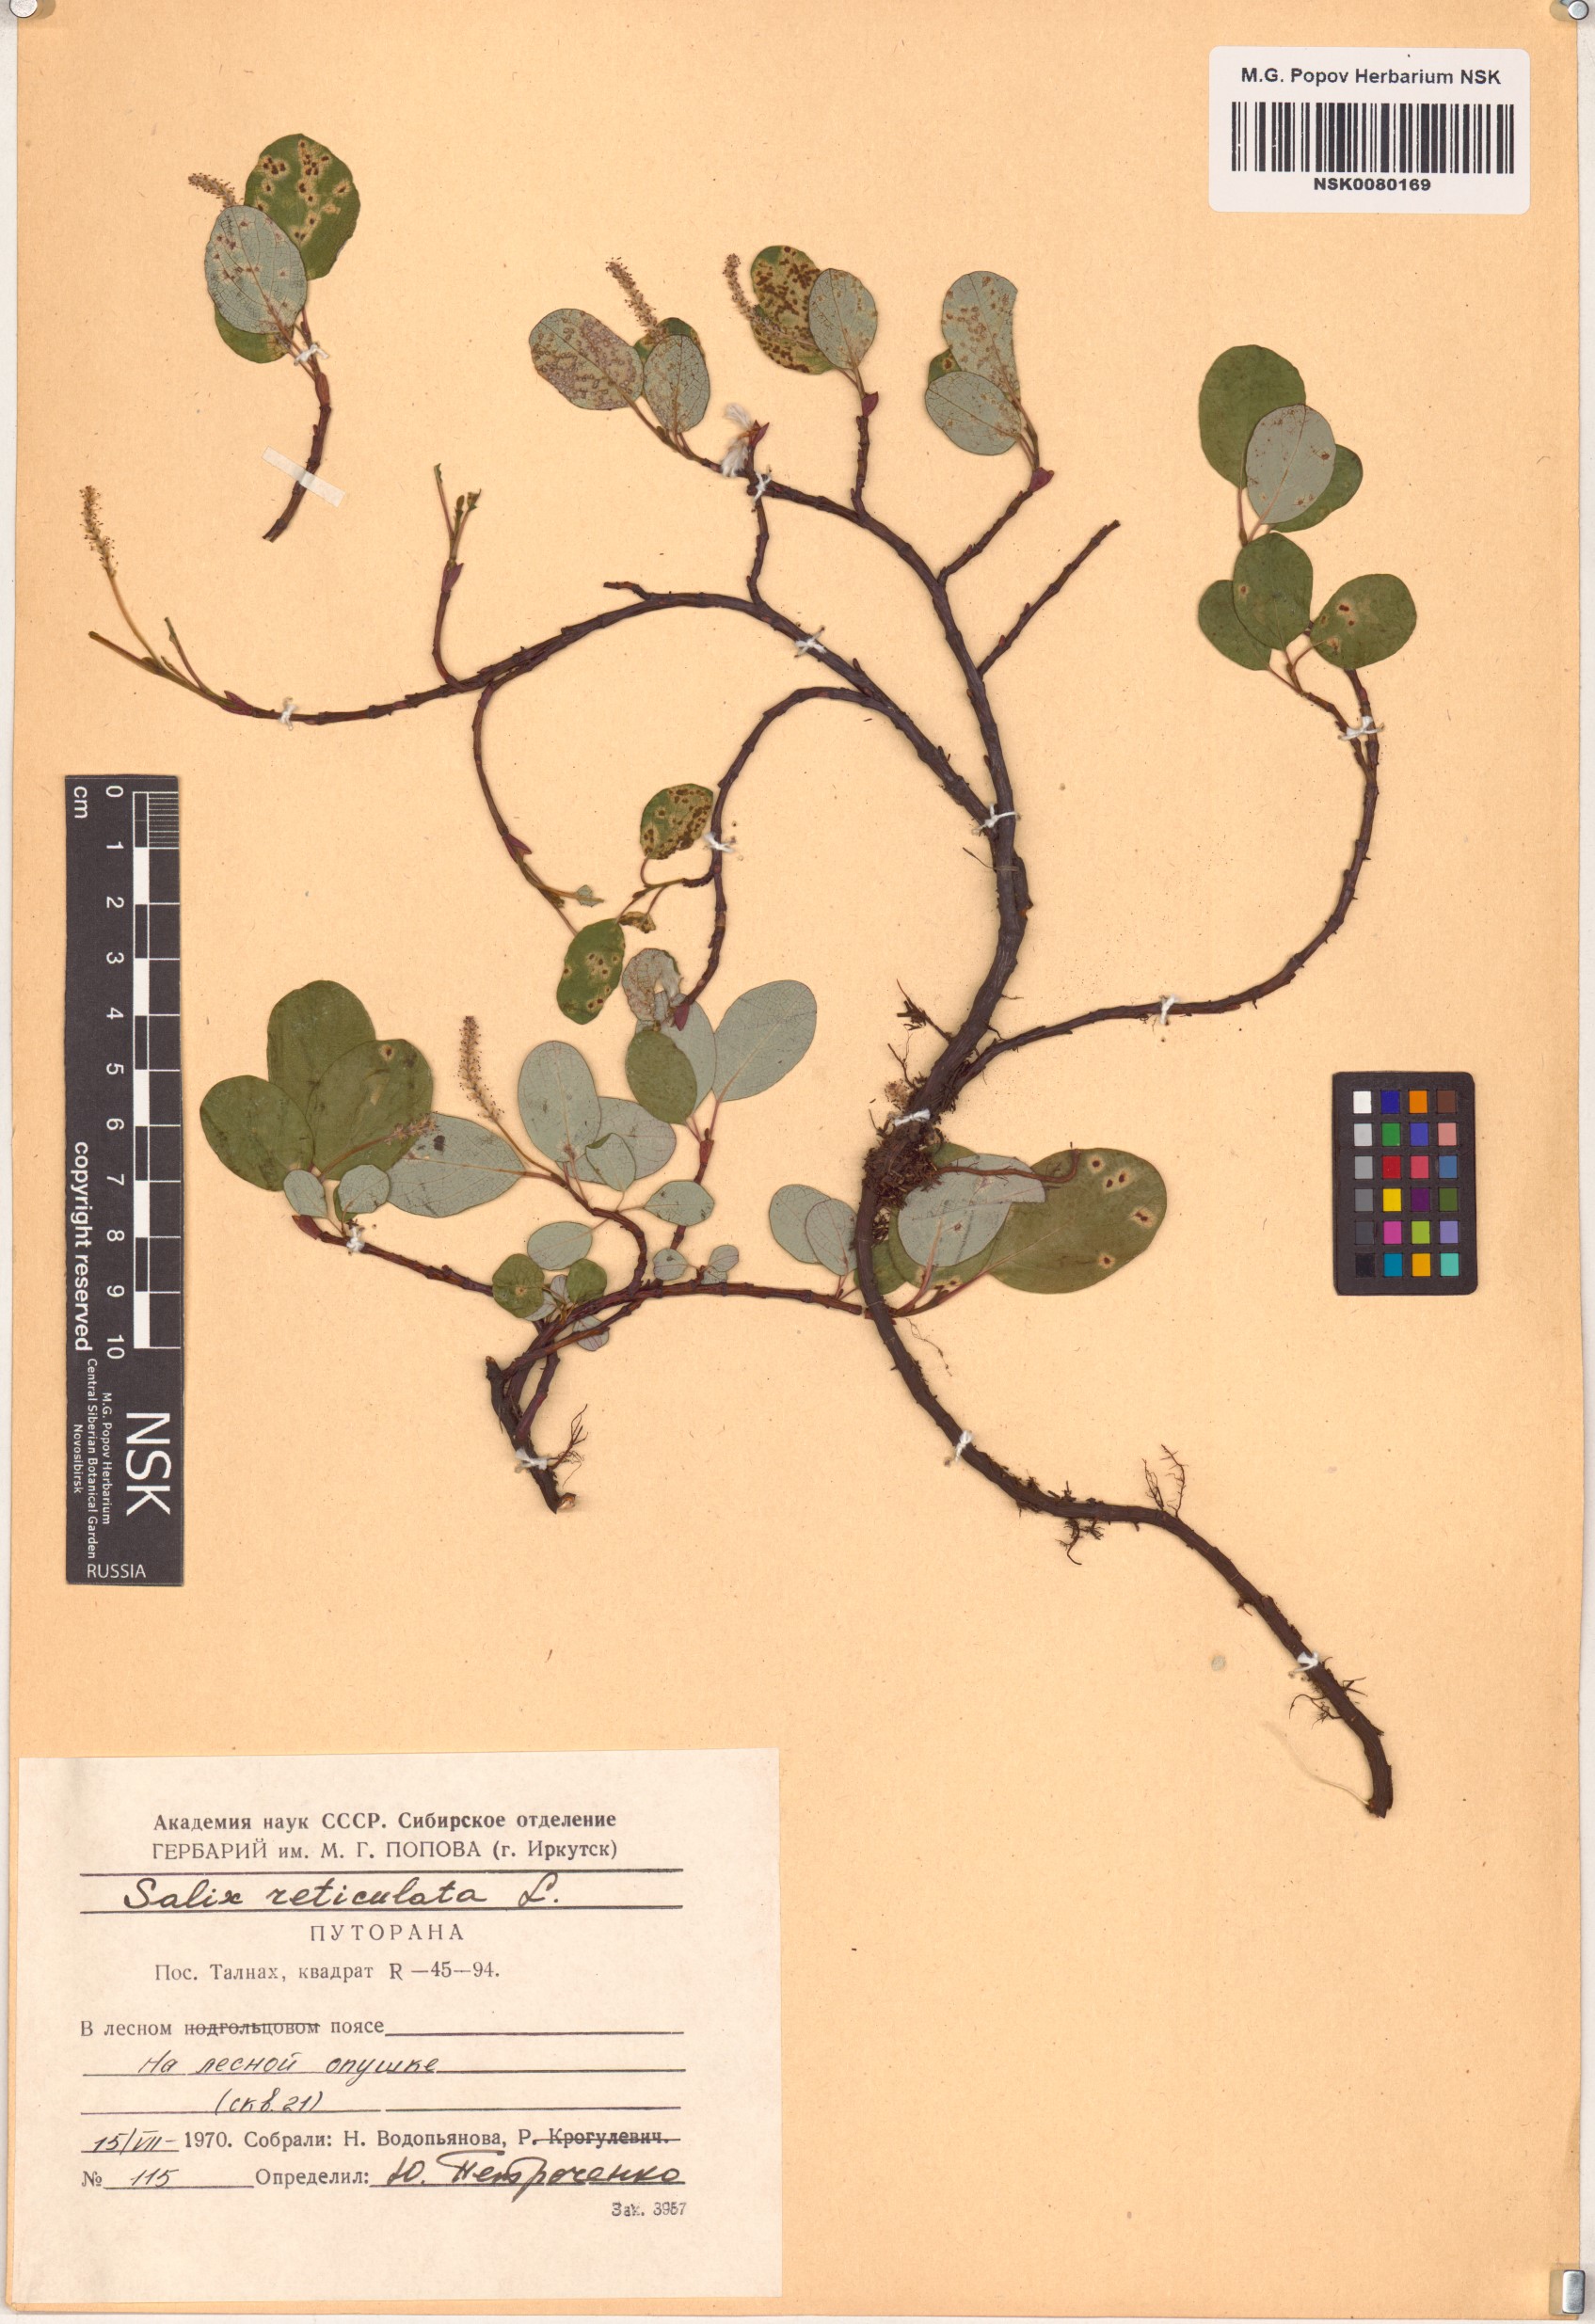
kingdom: Plantae
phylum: Tracheophyta
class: Magnoliopsida
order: Malpighiales
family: Salicaceae
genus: Salix
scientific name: Salix reticulata
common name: Net-leaved willow
